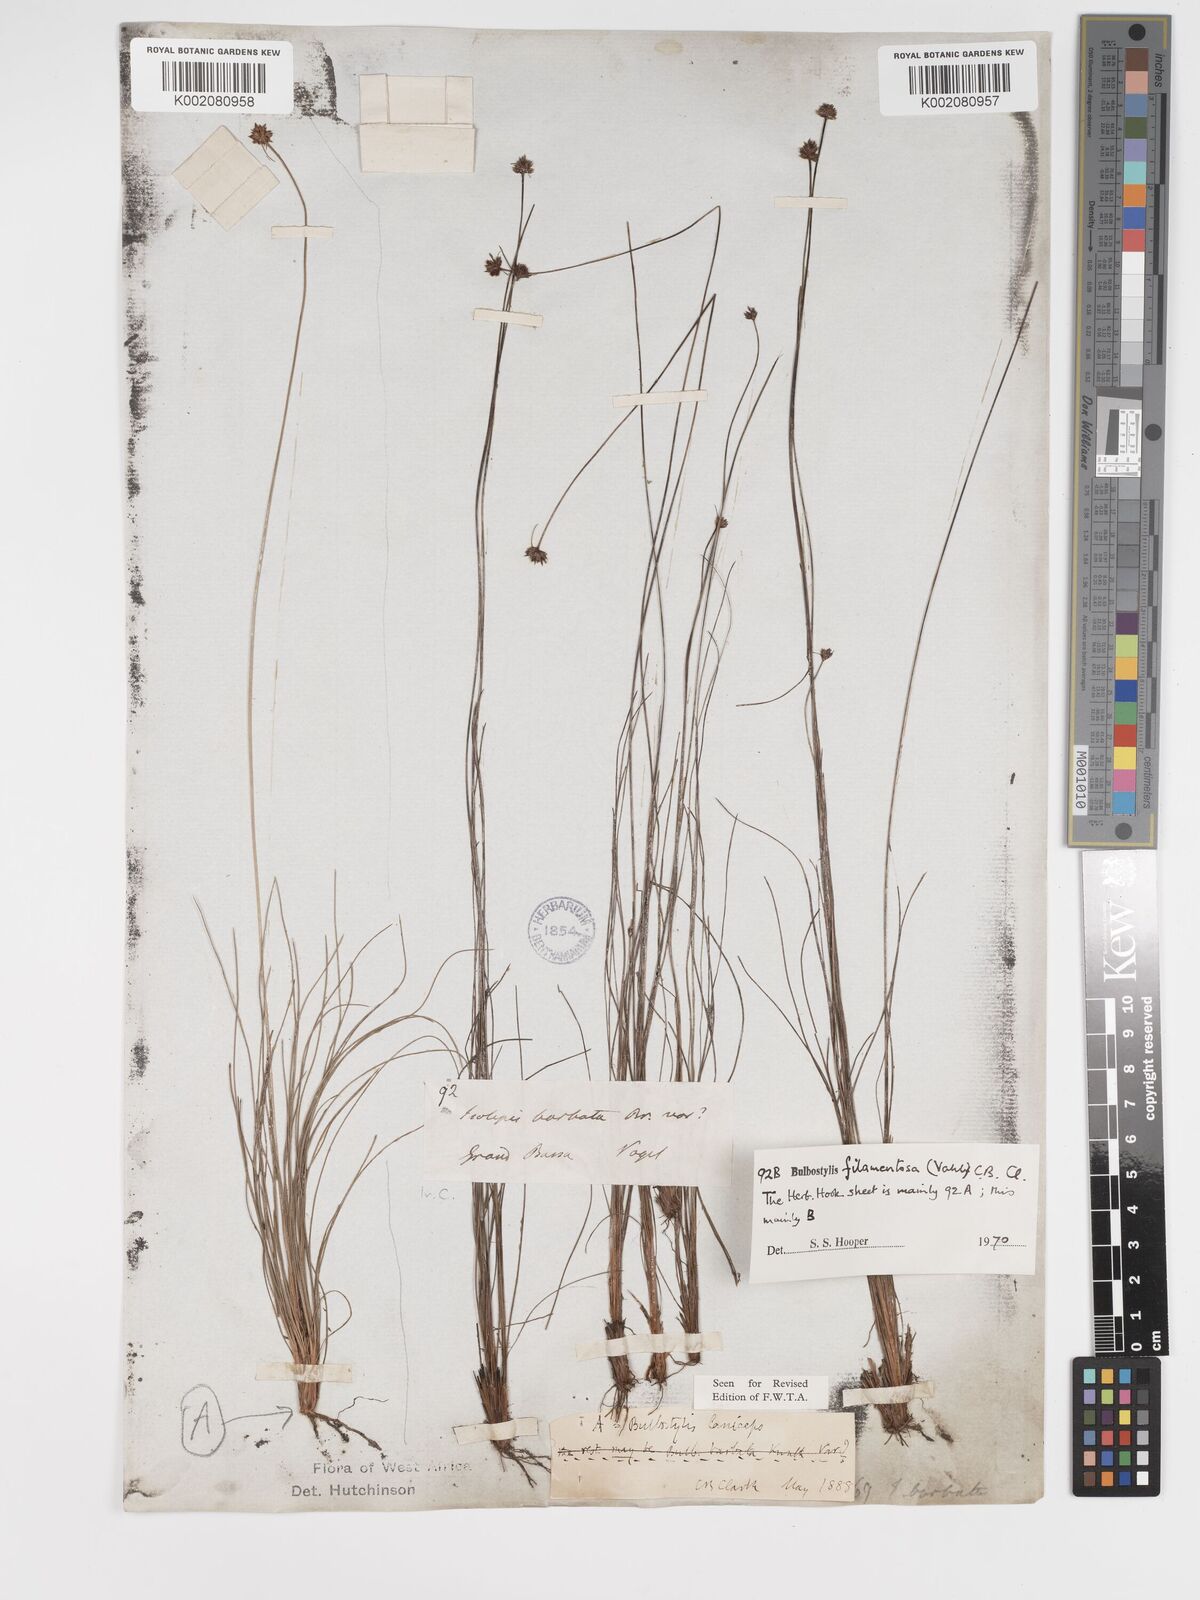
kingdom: Plantae
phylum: Tracheophyta
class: Liliopsida
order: Poales
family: Cyperaceae
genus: Bulbostylis
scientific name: Bulbostylis filamentosa
